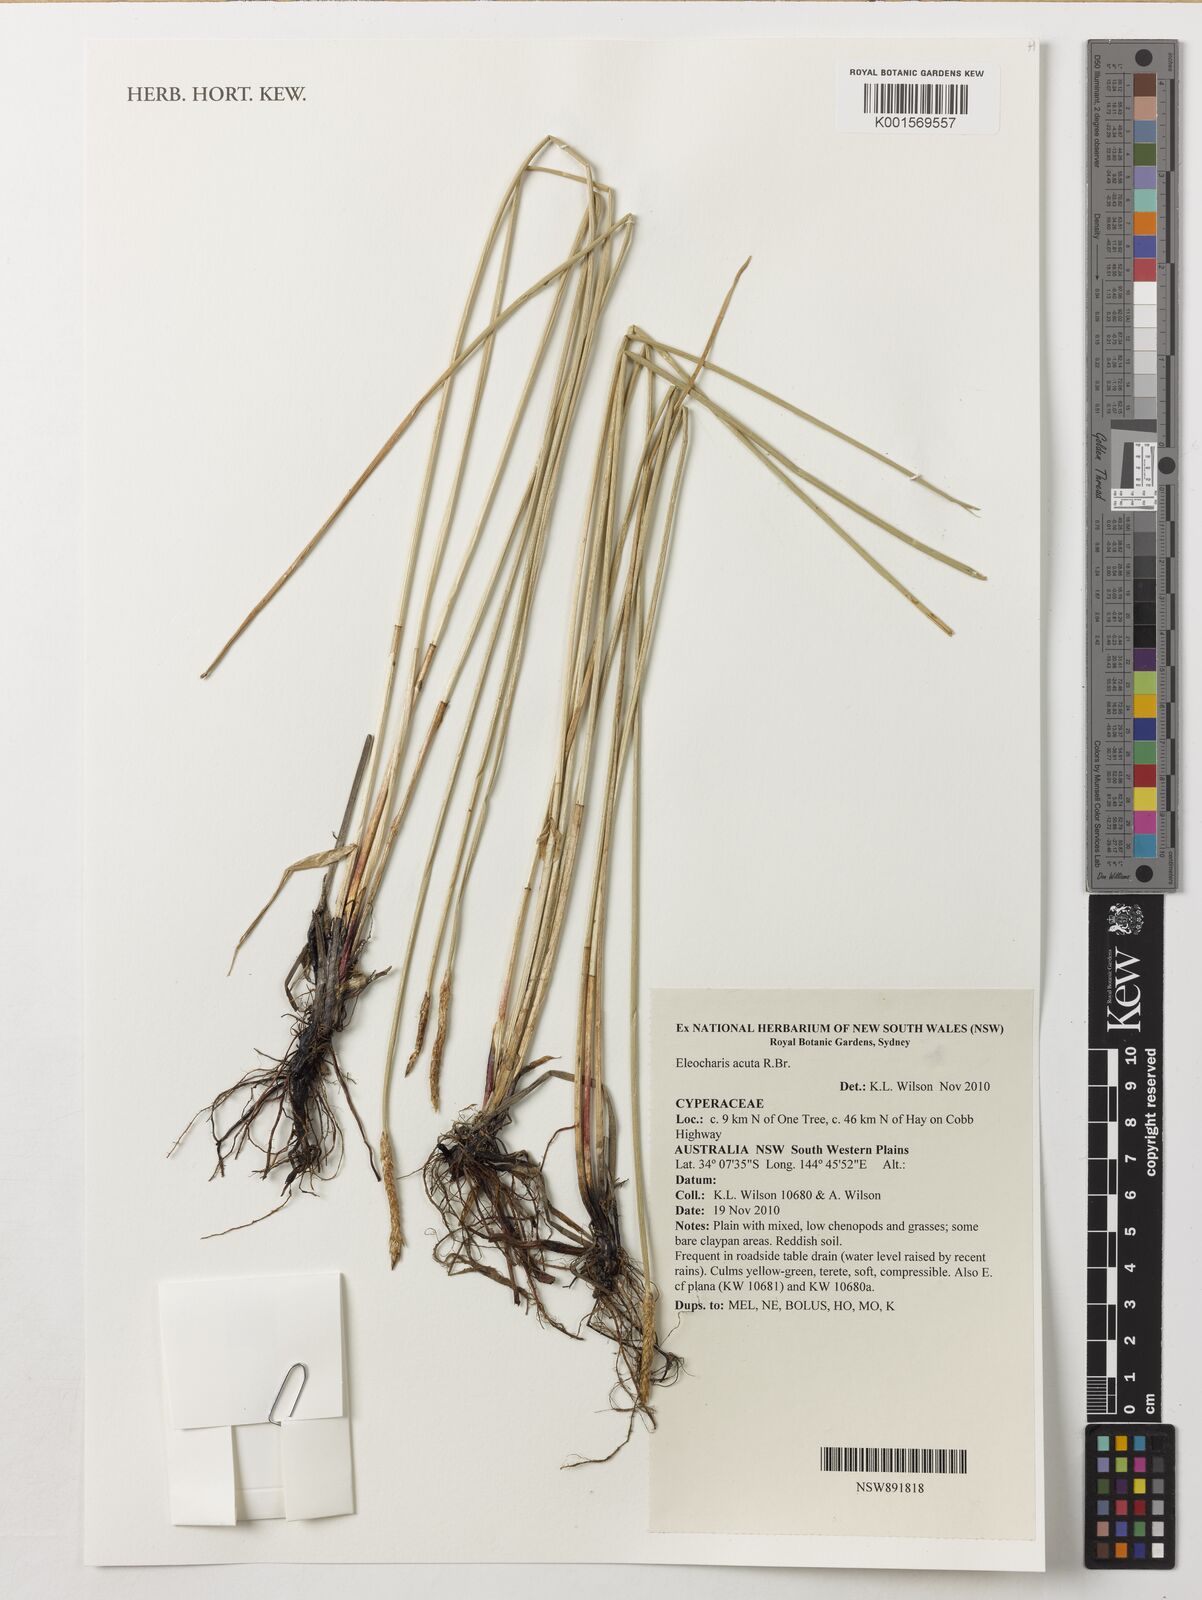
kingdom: Plantae
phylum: Tracheophyta
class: Liliopsida
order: Poales
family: Cyperaceae
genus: Eleocharis
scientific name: Eleocharis acuta
